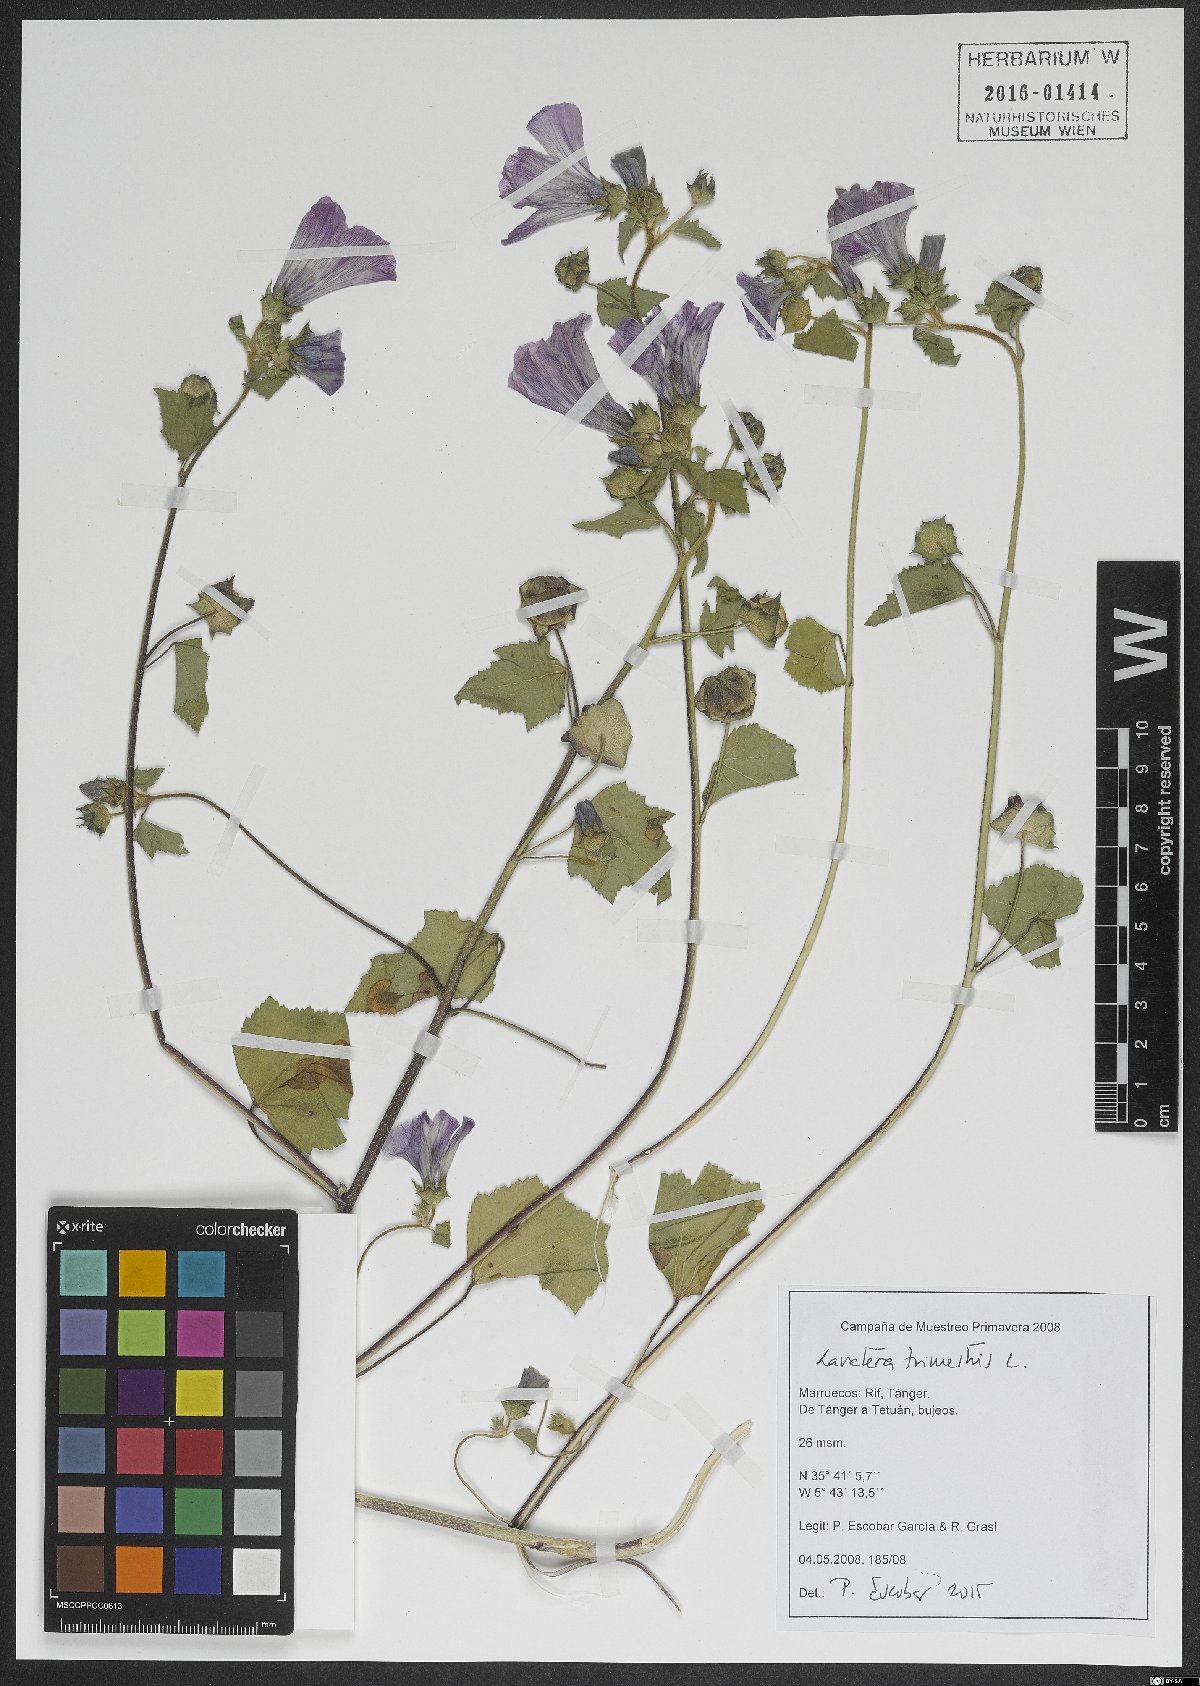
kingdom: Plantae
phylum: Tracheophyta
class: Magnoliopsida
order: Malvales
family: Malvaceae
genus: Malva
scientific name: Malva trimestris
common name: Royal mallow
